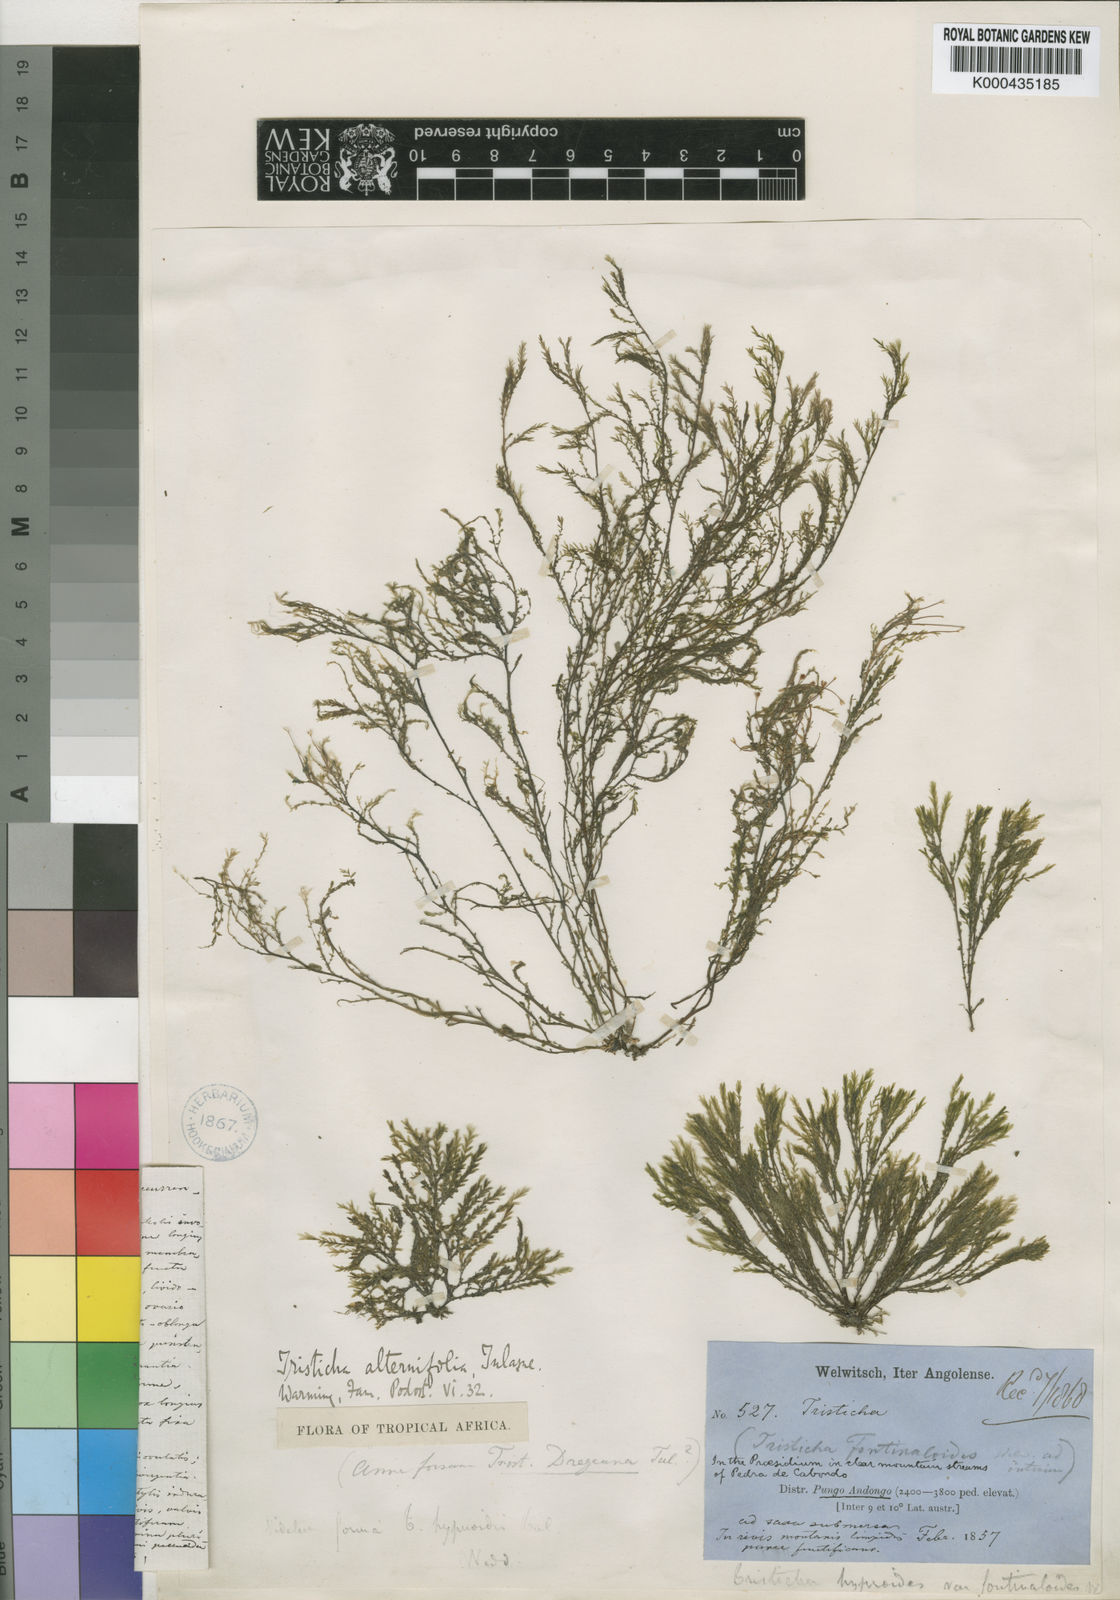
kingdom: Plantae
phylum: Tracheophyta
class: Magnoliopsida
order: Malpighiales
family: Podostemaceae
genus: Tristicha
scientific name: Tristicha trifaria
